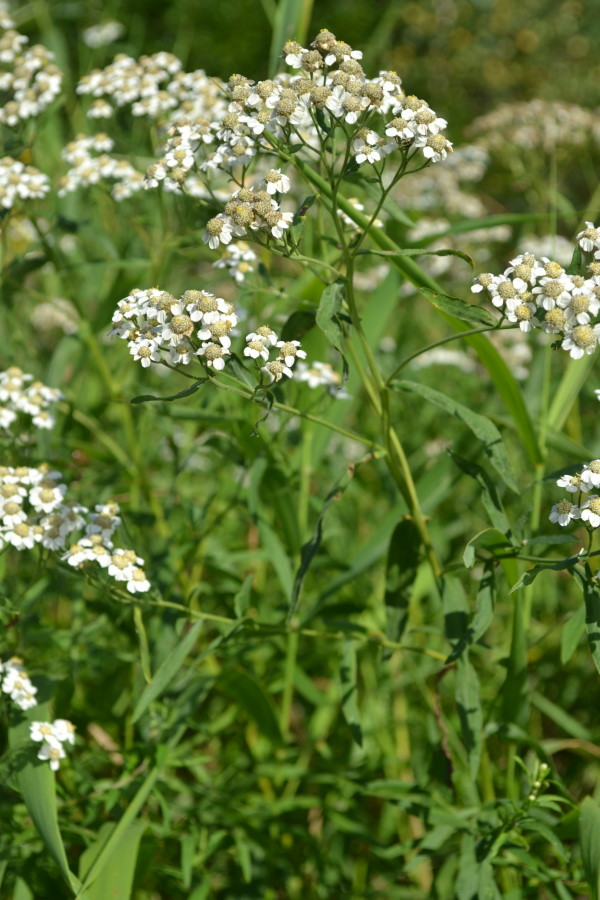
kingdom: Plantae
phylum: Tracheophyta
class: Magnoliopsida
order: Asterales
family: Asteraceae
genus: Achillea
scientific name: Achillea ptarmica
